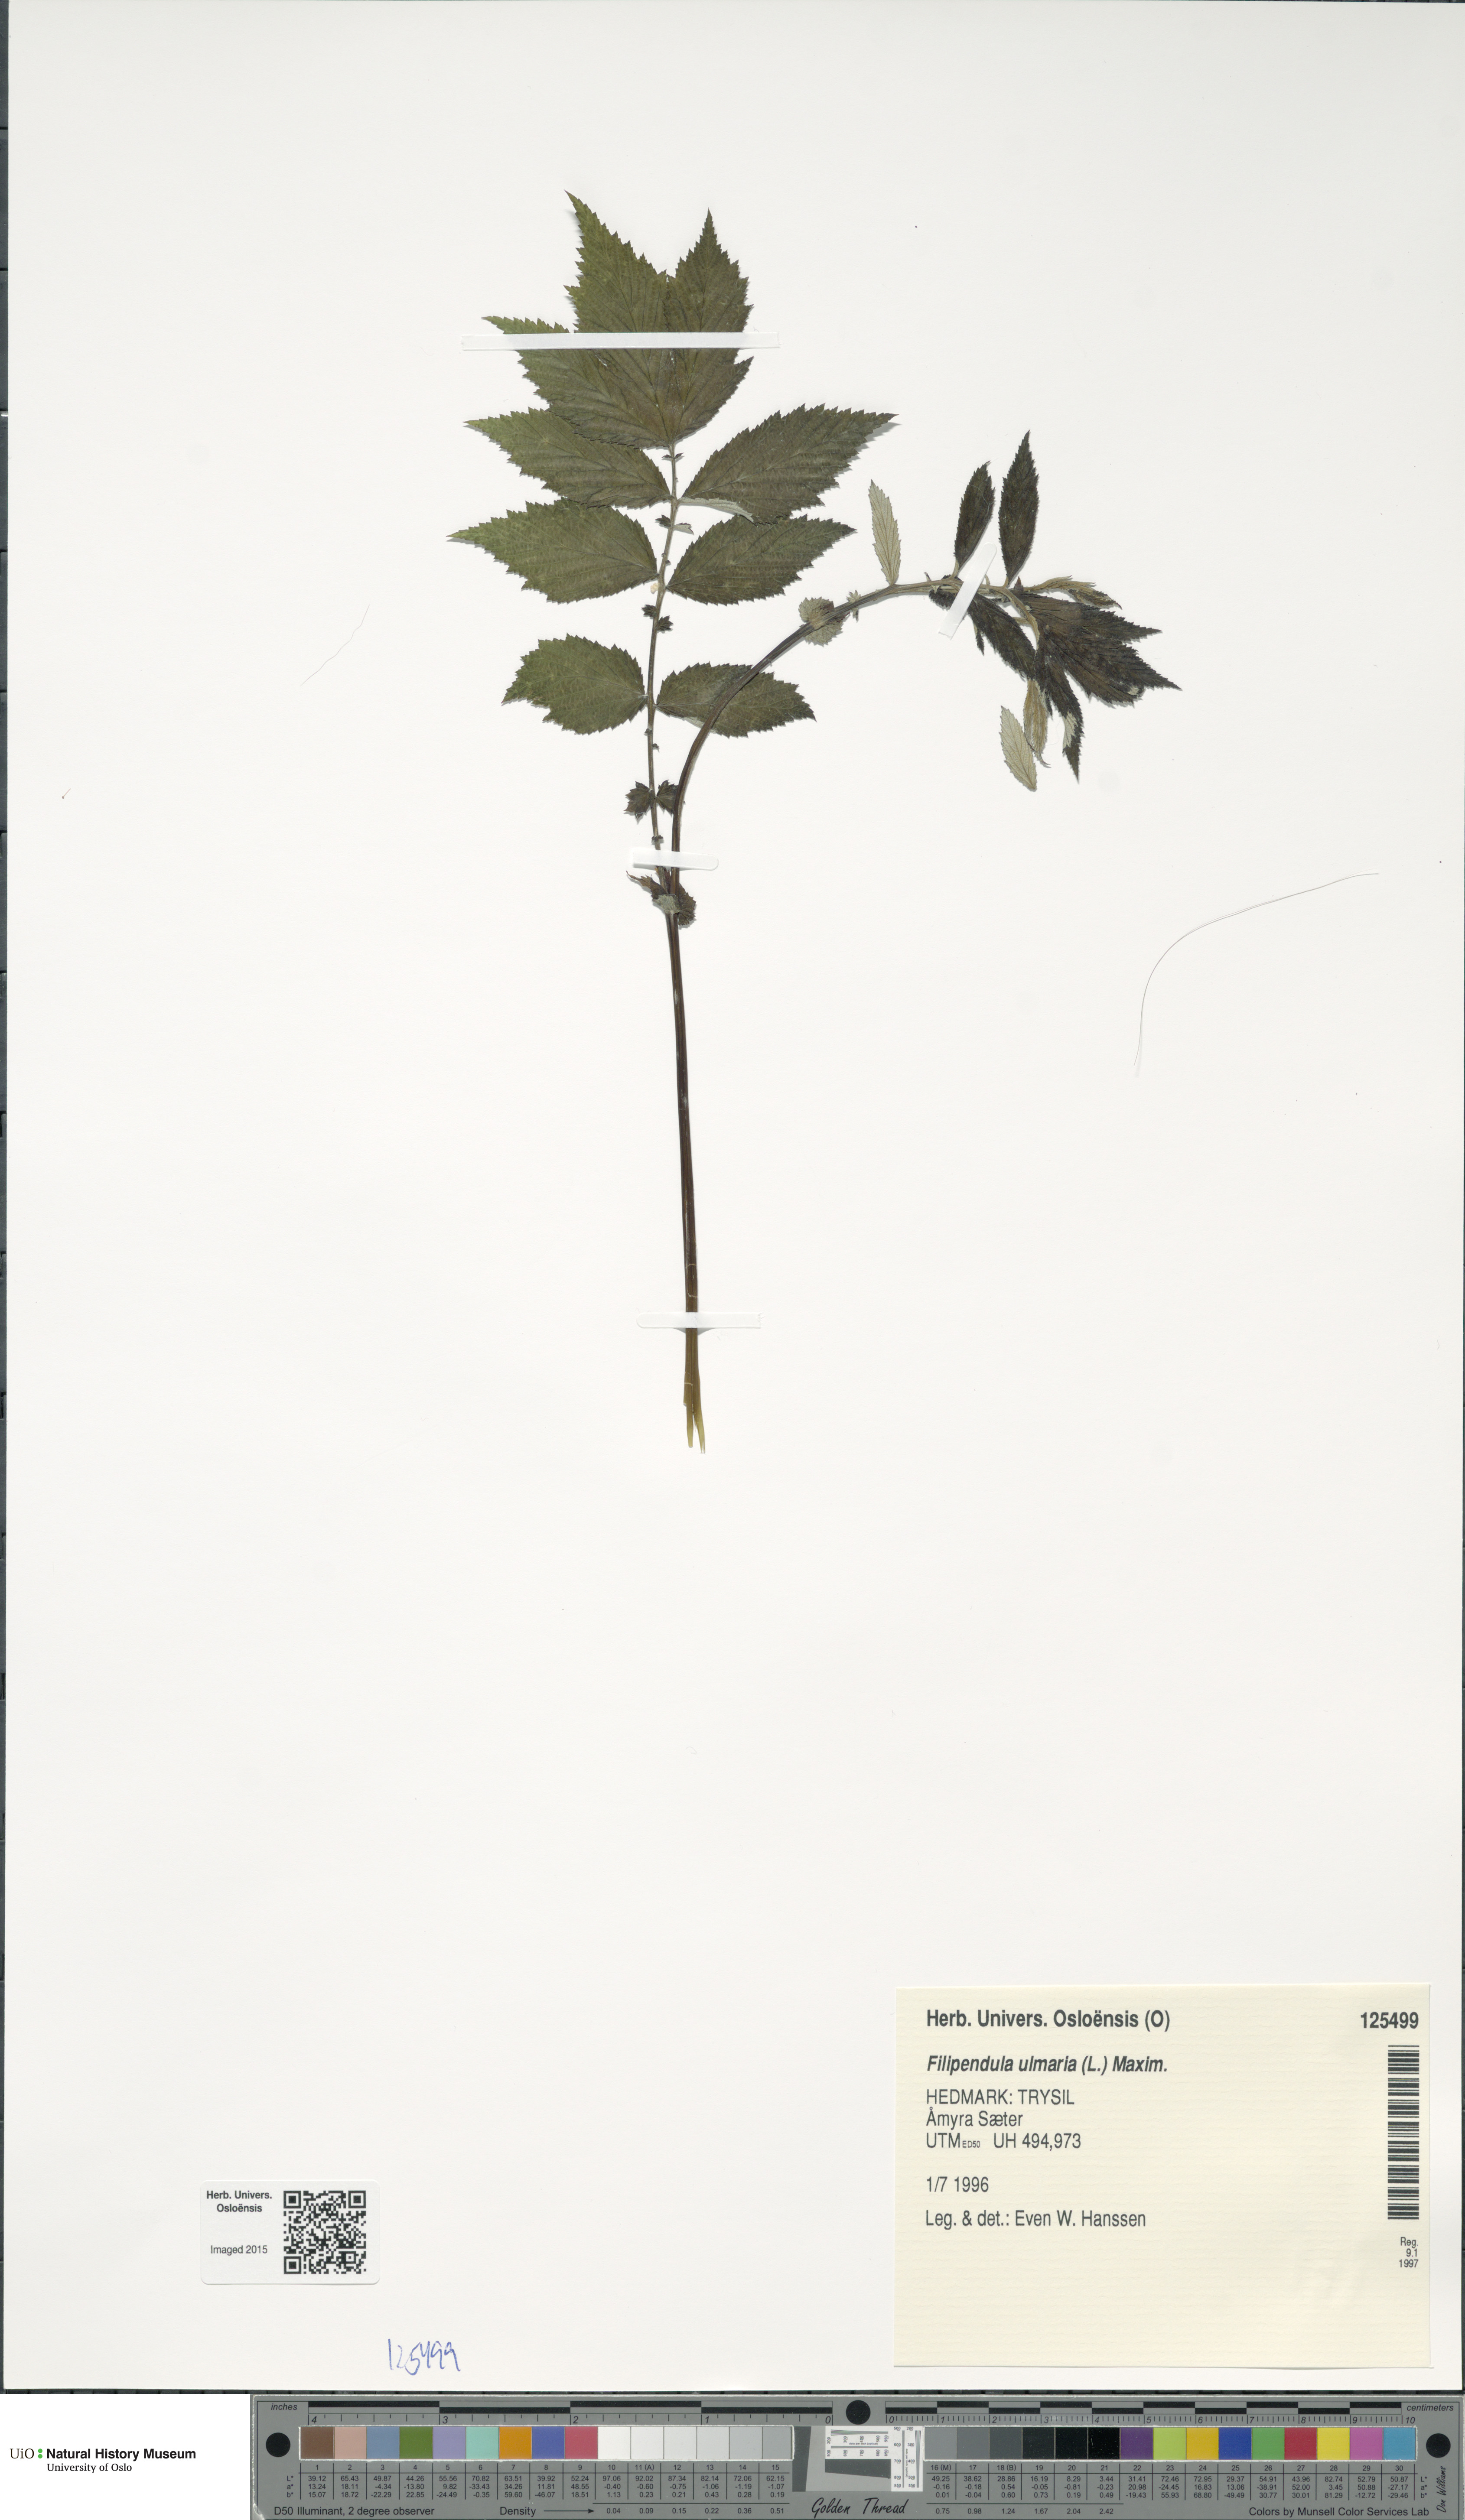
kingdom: Plantae
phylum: Tracheophyta
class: Magnoliopsida
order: Rosales
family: Rosaceae
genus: Filipendula
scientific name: Filipendula ulmaria
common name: Meadowsweet
